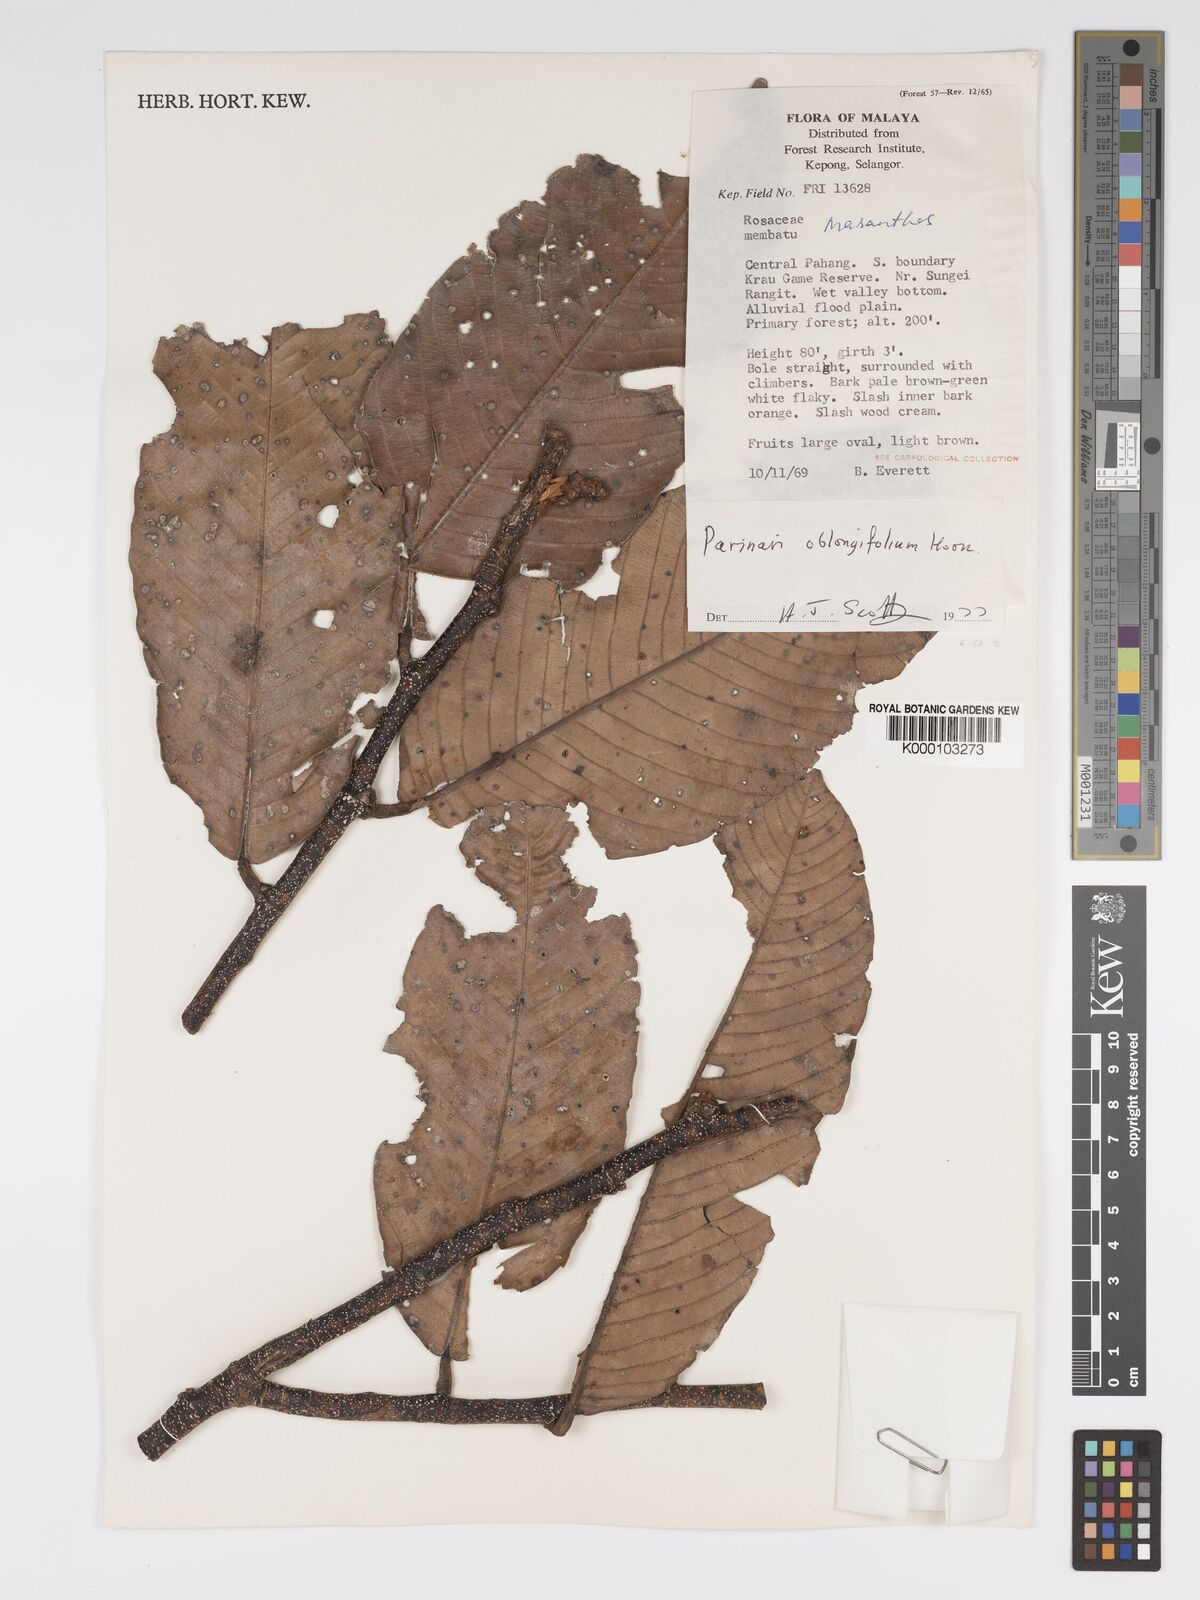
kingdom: Plantae
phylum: Tracheophyta
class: Magnoliopsida
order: Malpighiales
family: Chrysobalanaceae
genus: Parinari
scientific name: Parinari oblongifolia
